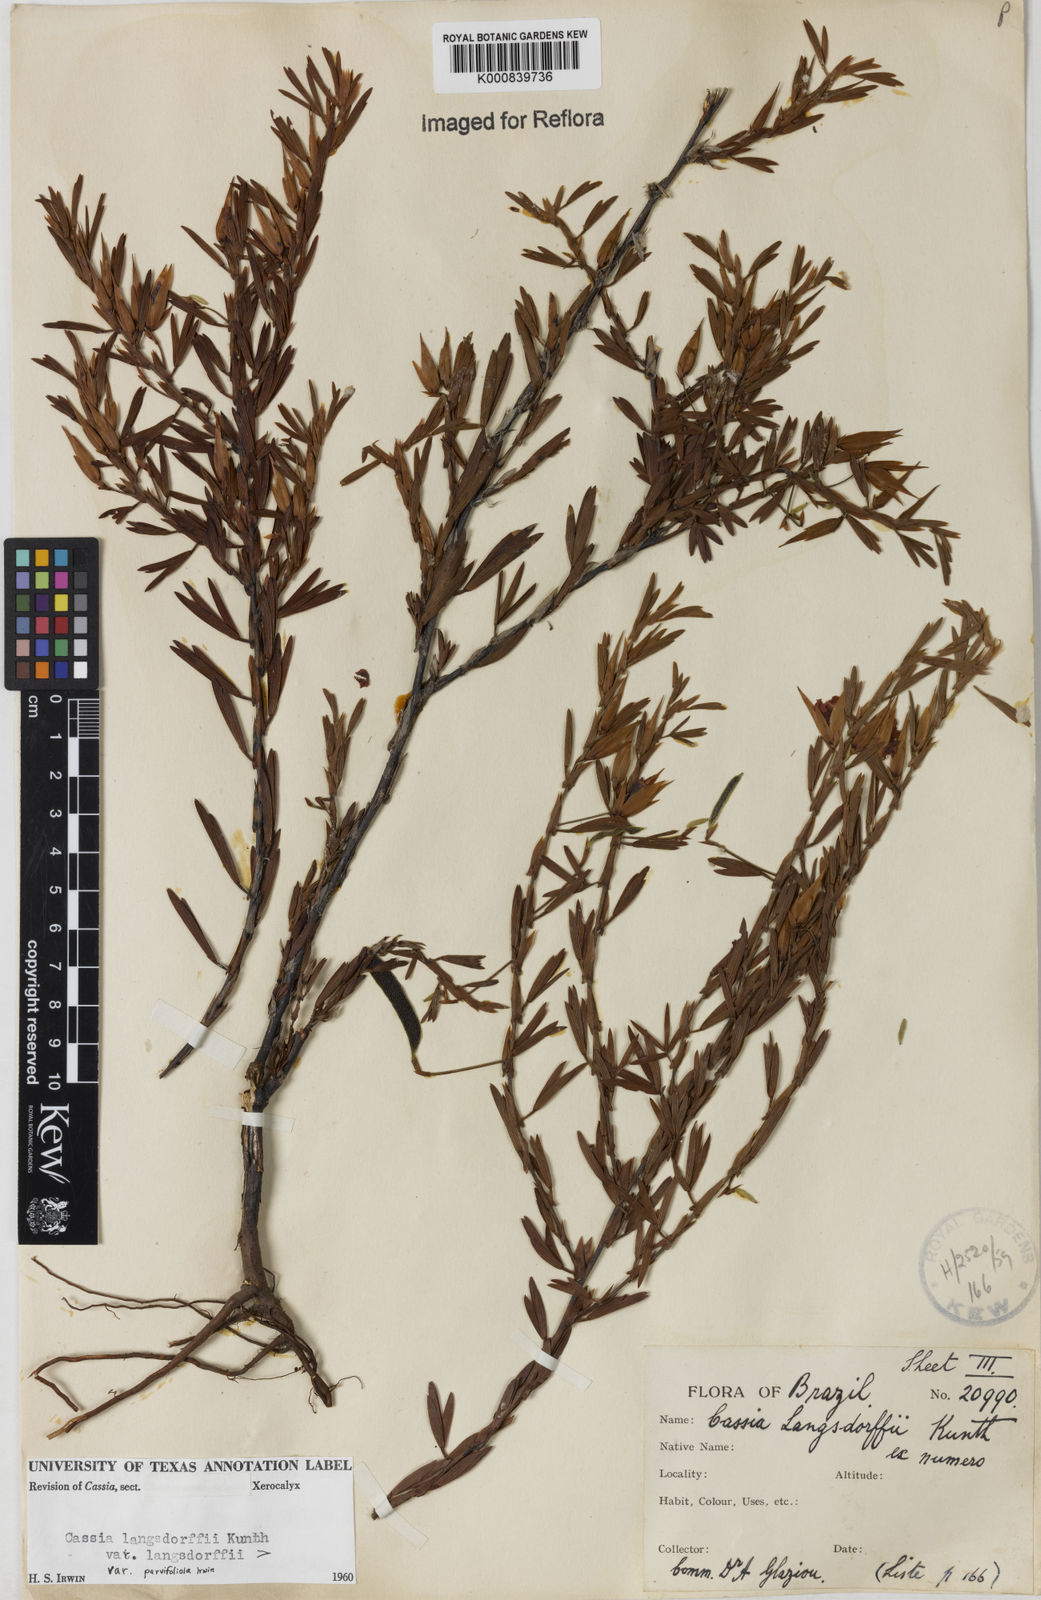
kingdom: Plantae
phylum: Tracheophyta
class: Magnoliopsida
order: Fabales
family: Fabaceae
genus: Chamaecrista
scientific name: Chamaecrista langsdorffii
